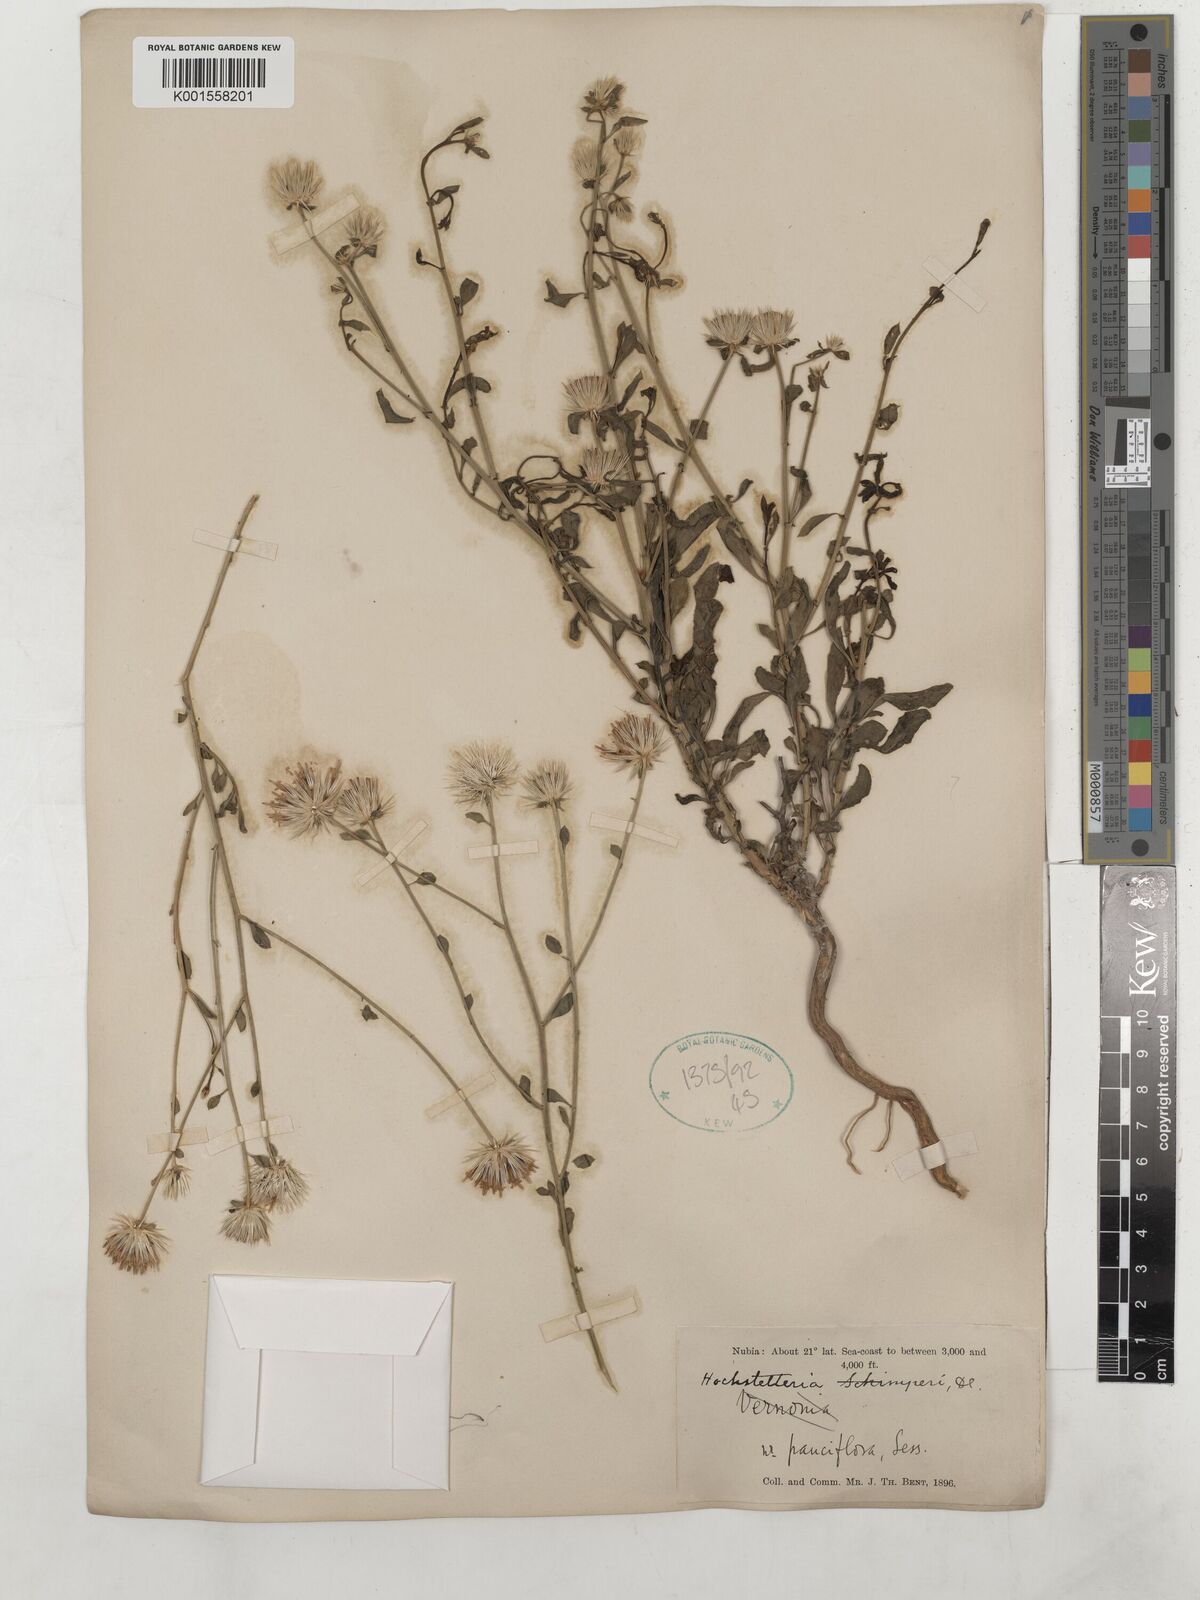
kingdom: Plantae
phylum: Tracheophyta
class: Magnoliopsida
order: Asterales
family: Asteraceae
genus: Dicoma
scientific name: Dicoma schimperi
